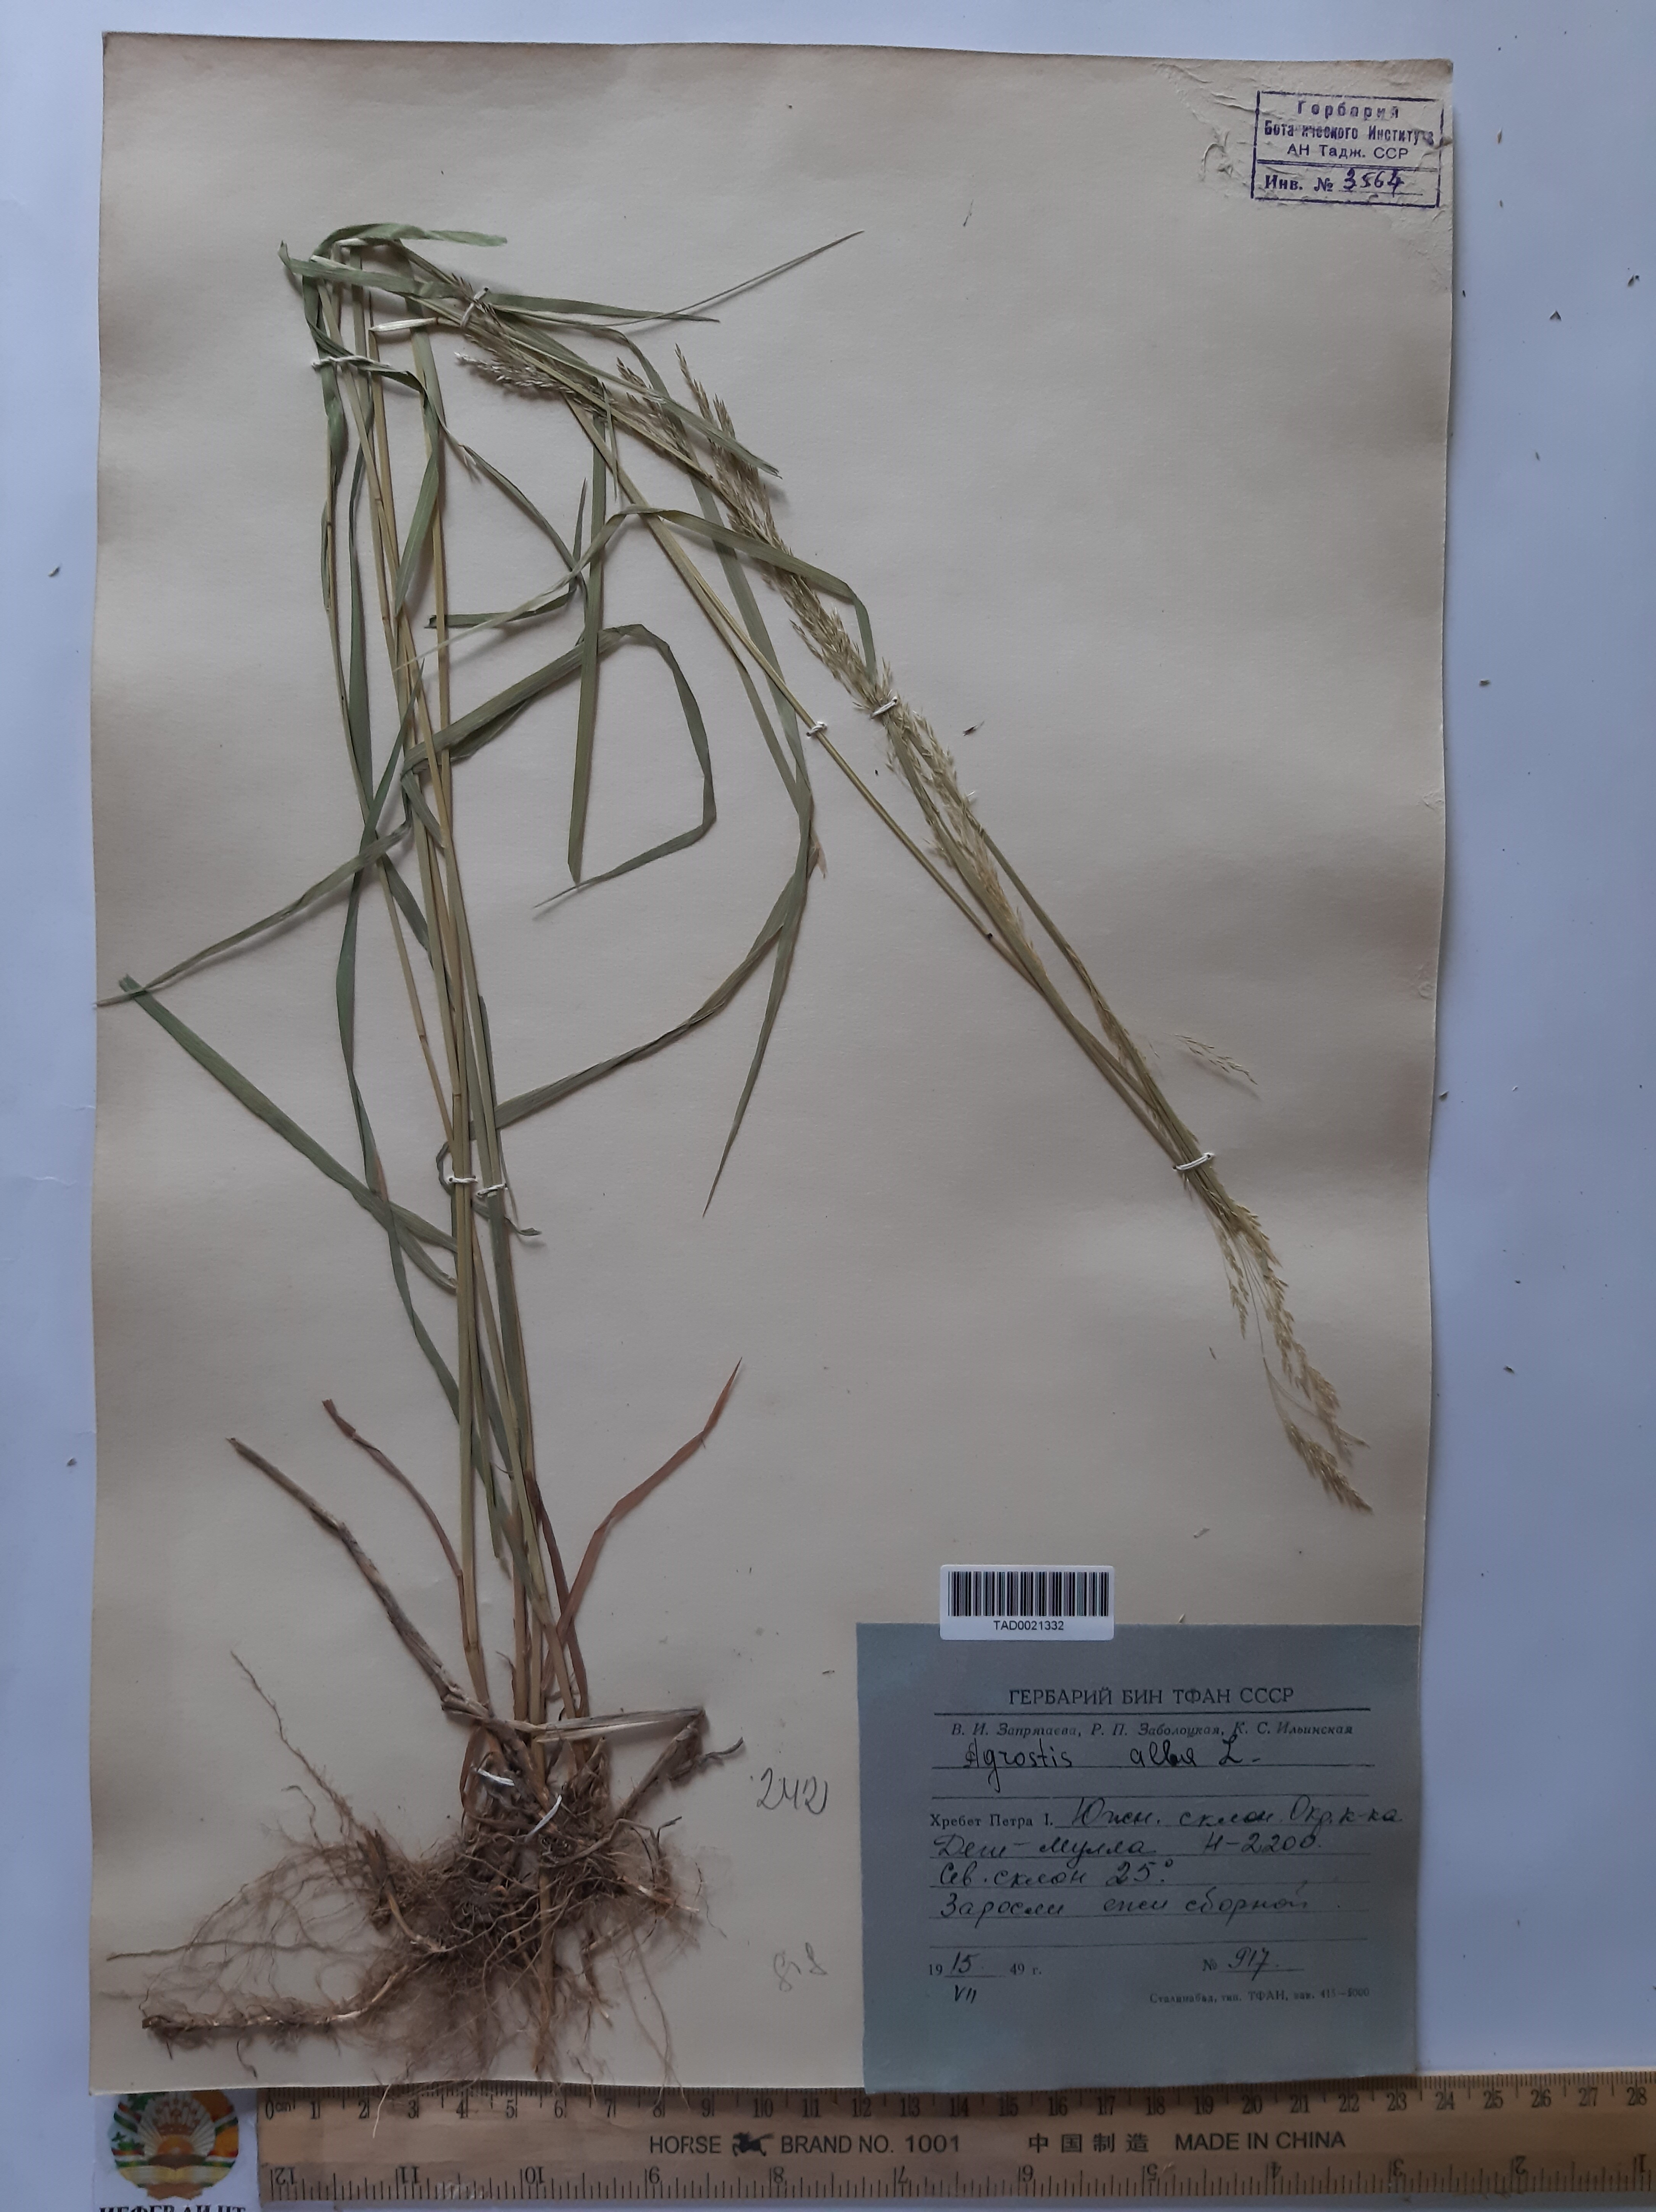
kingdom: Plantae
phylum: Tracheophyta
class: Liliopsida
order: Poales
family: Poaceae
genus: Poa
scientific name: Poa nemoralis
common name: Wood bluegrass
